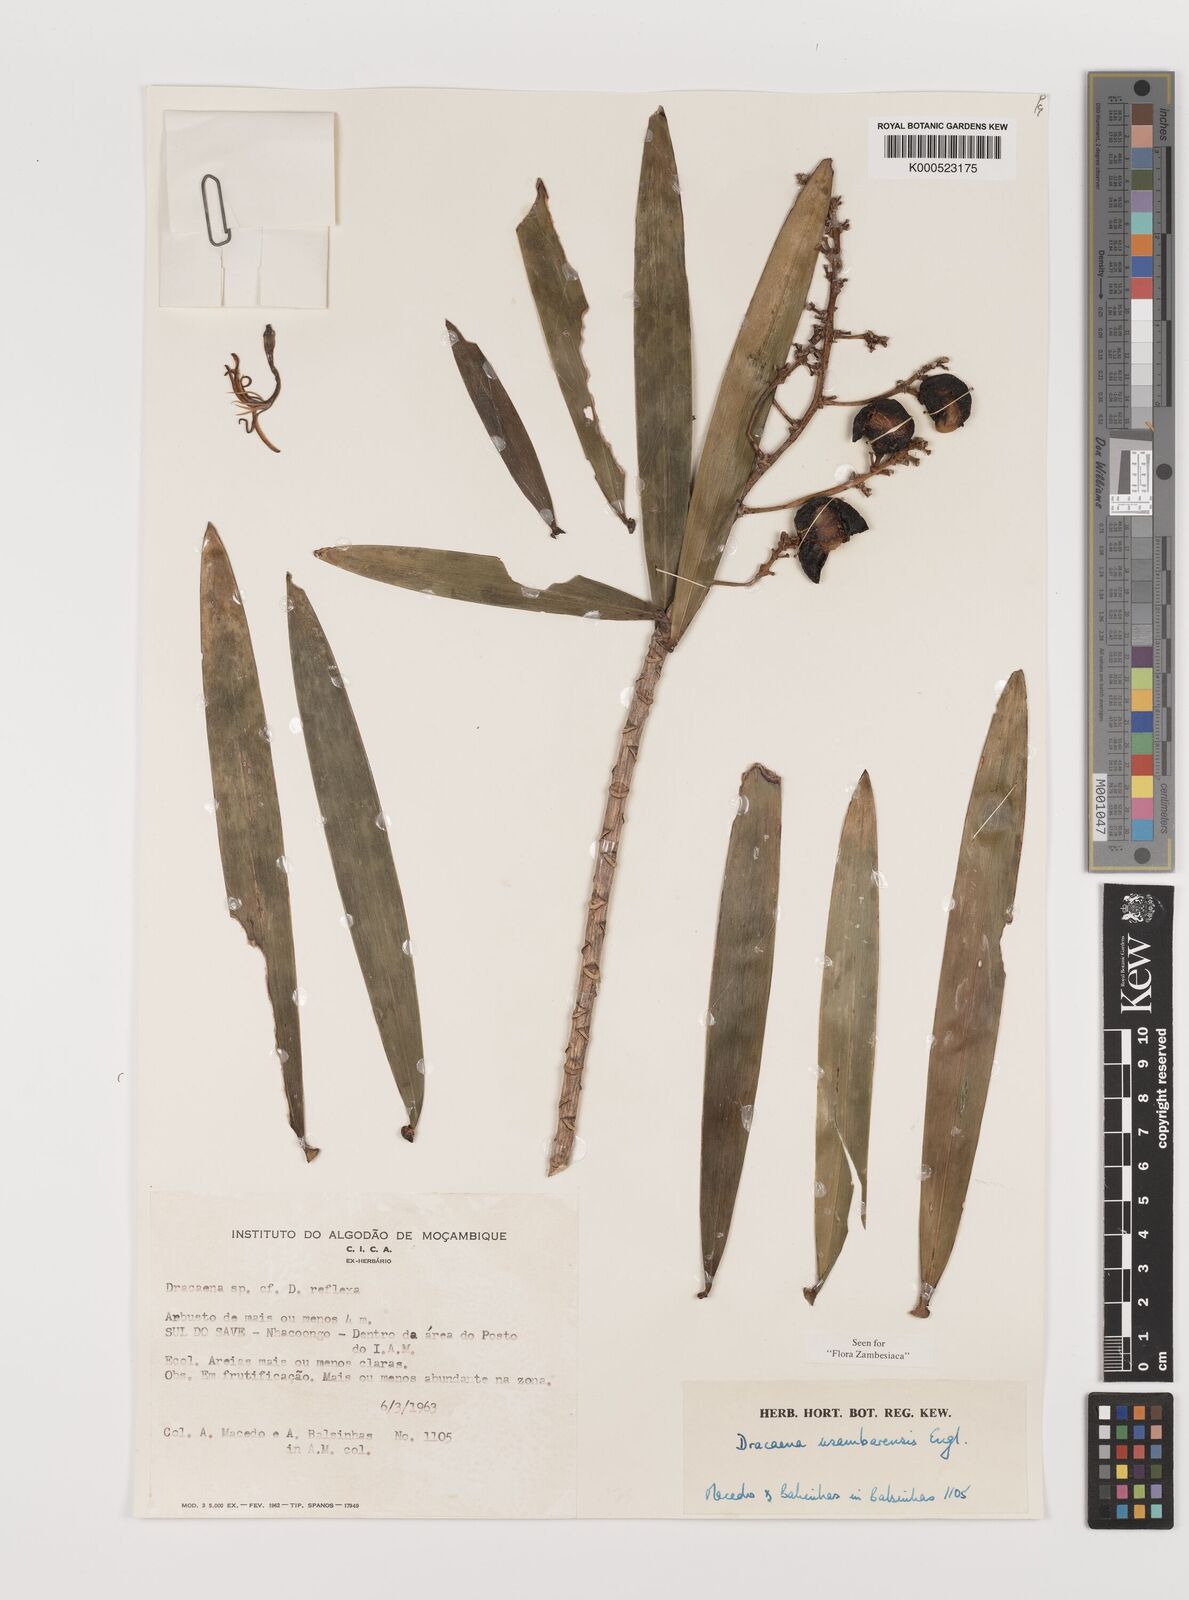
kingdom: Plantae
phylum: Tracheophyta
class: Liliopsida
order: Asparagales
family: Asparagaceae
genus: Dracaena
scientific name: Dracaena usambarensis
